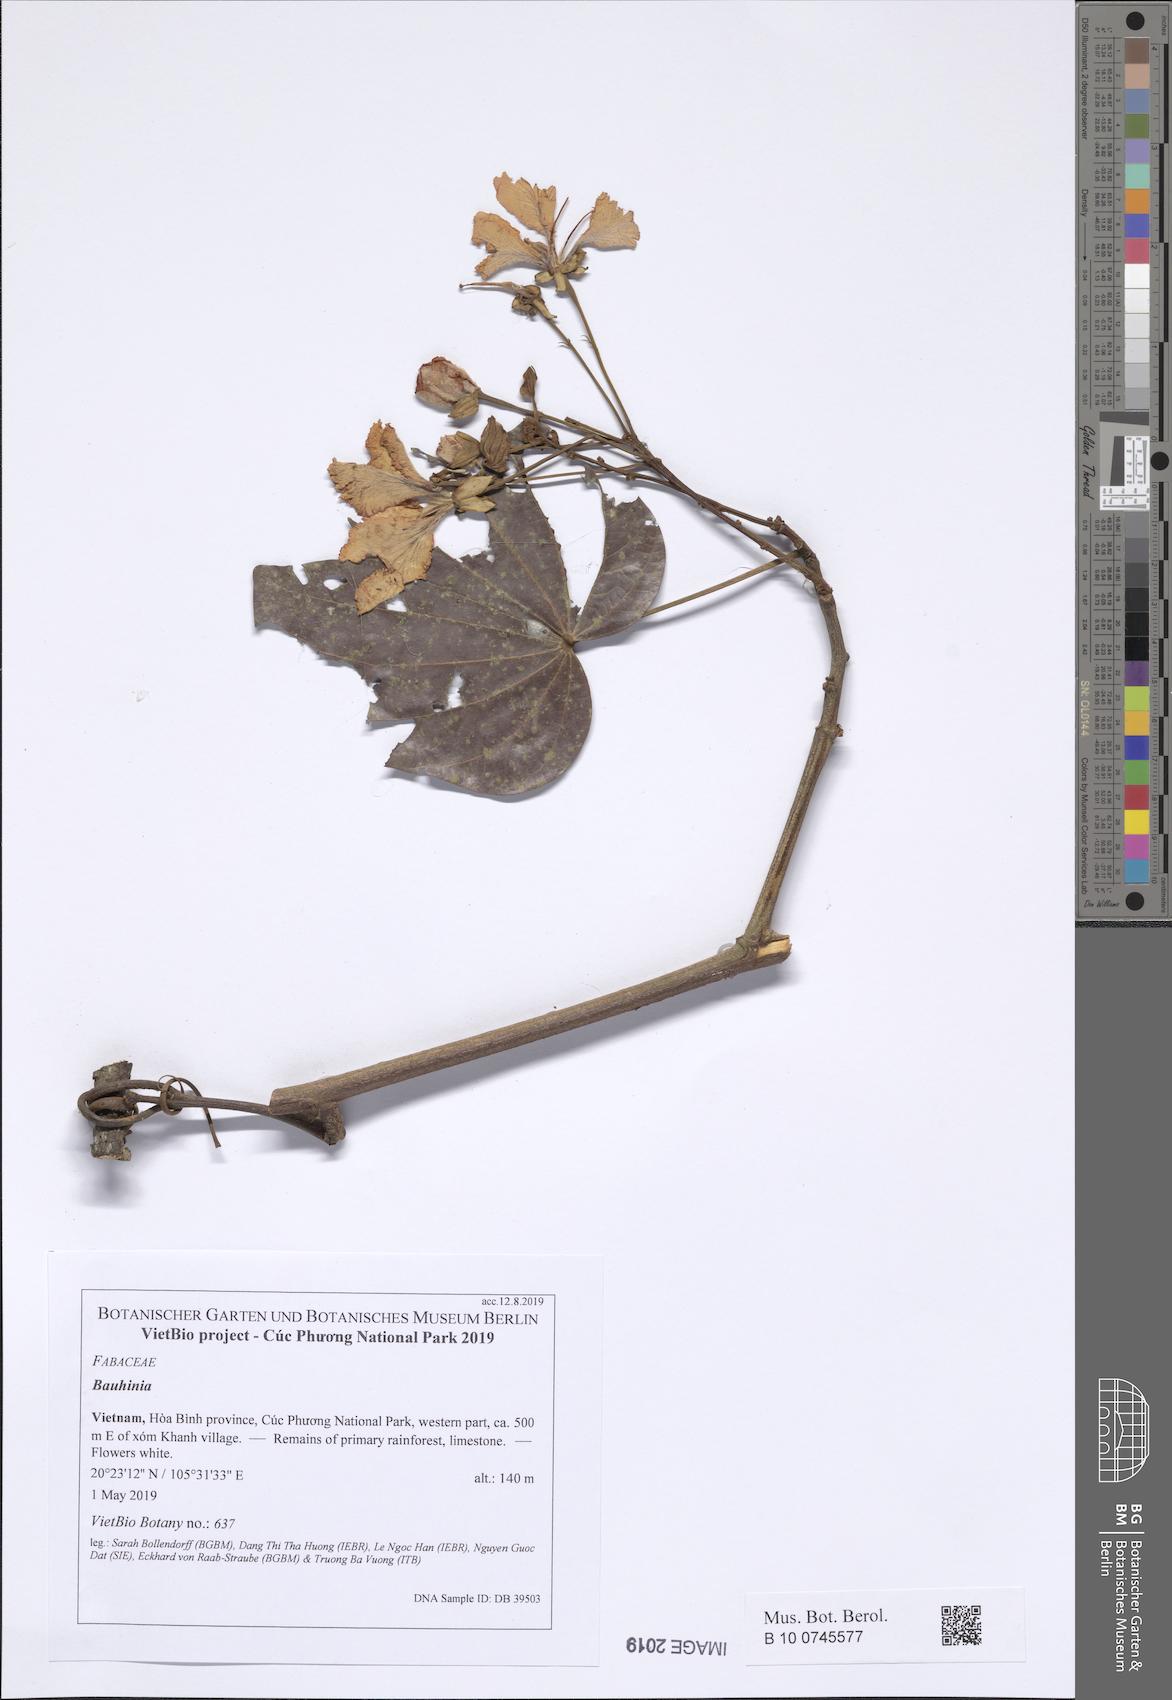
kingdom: Plantae
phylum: Tracheophyta
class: Magnoliopsida
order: Fabales
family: Fabaceae
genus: Phanera
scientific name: Phanera ornata
